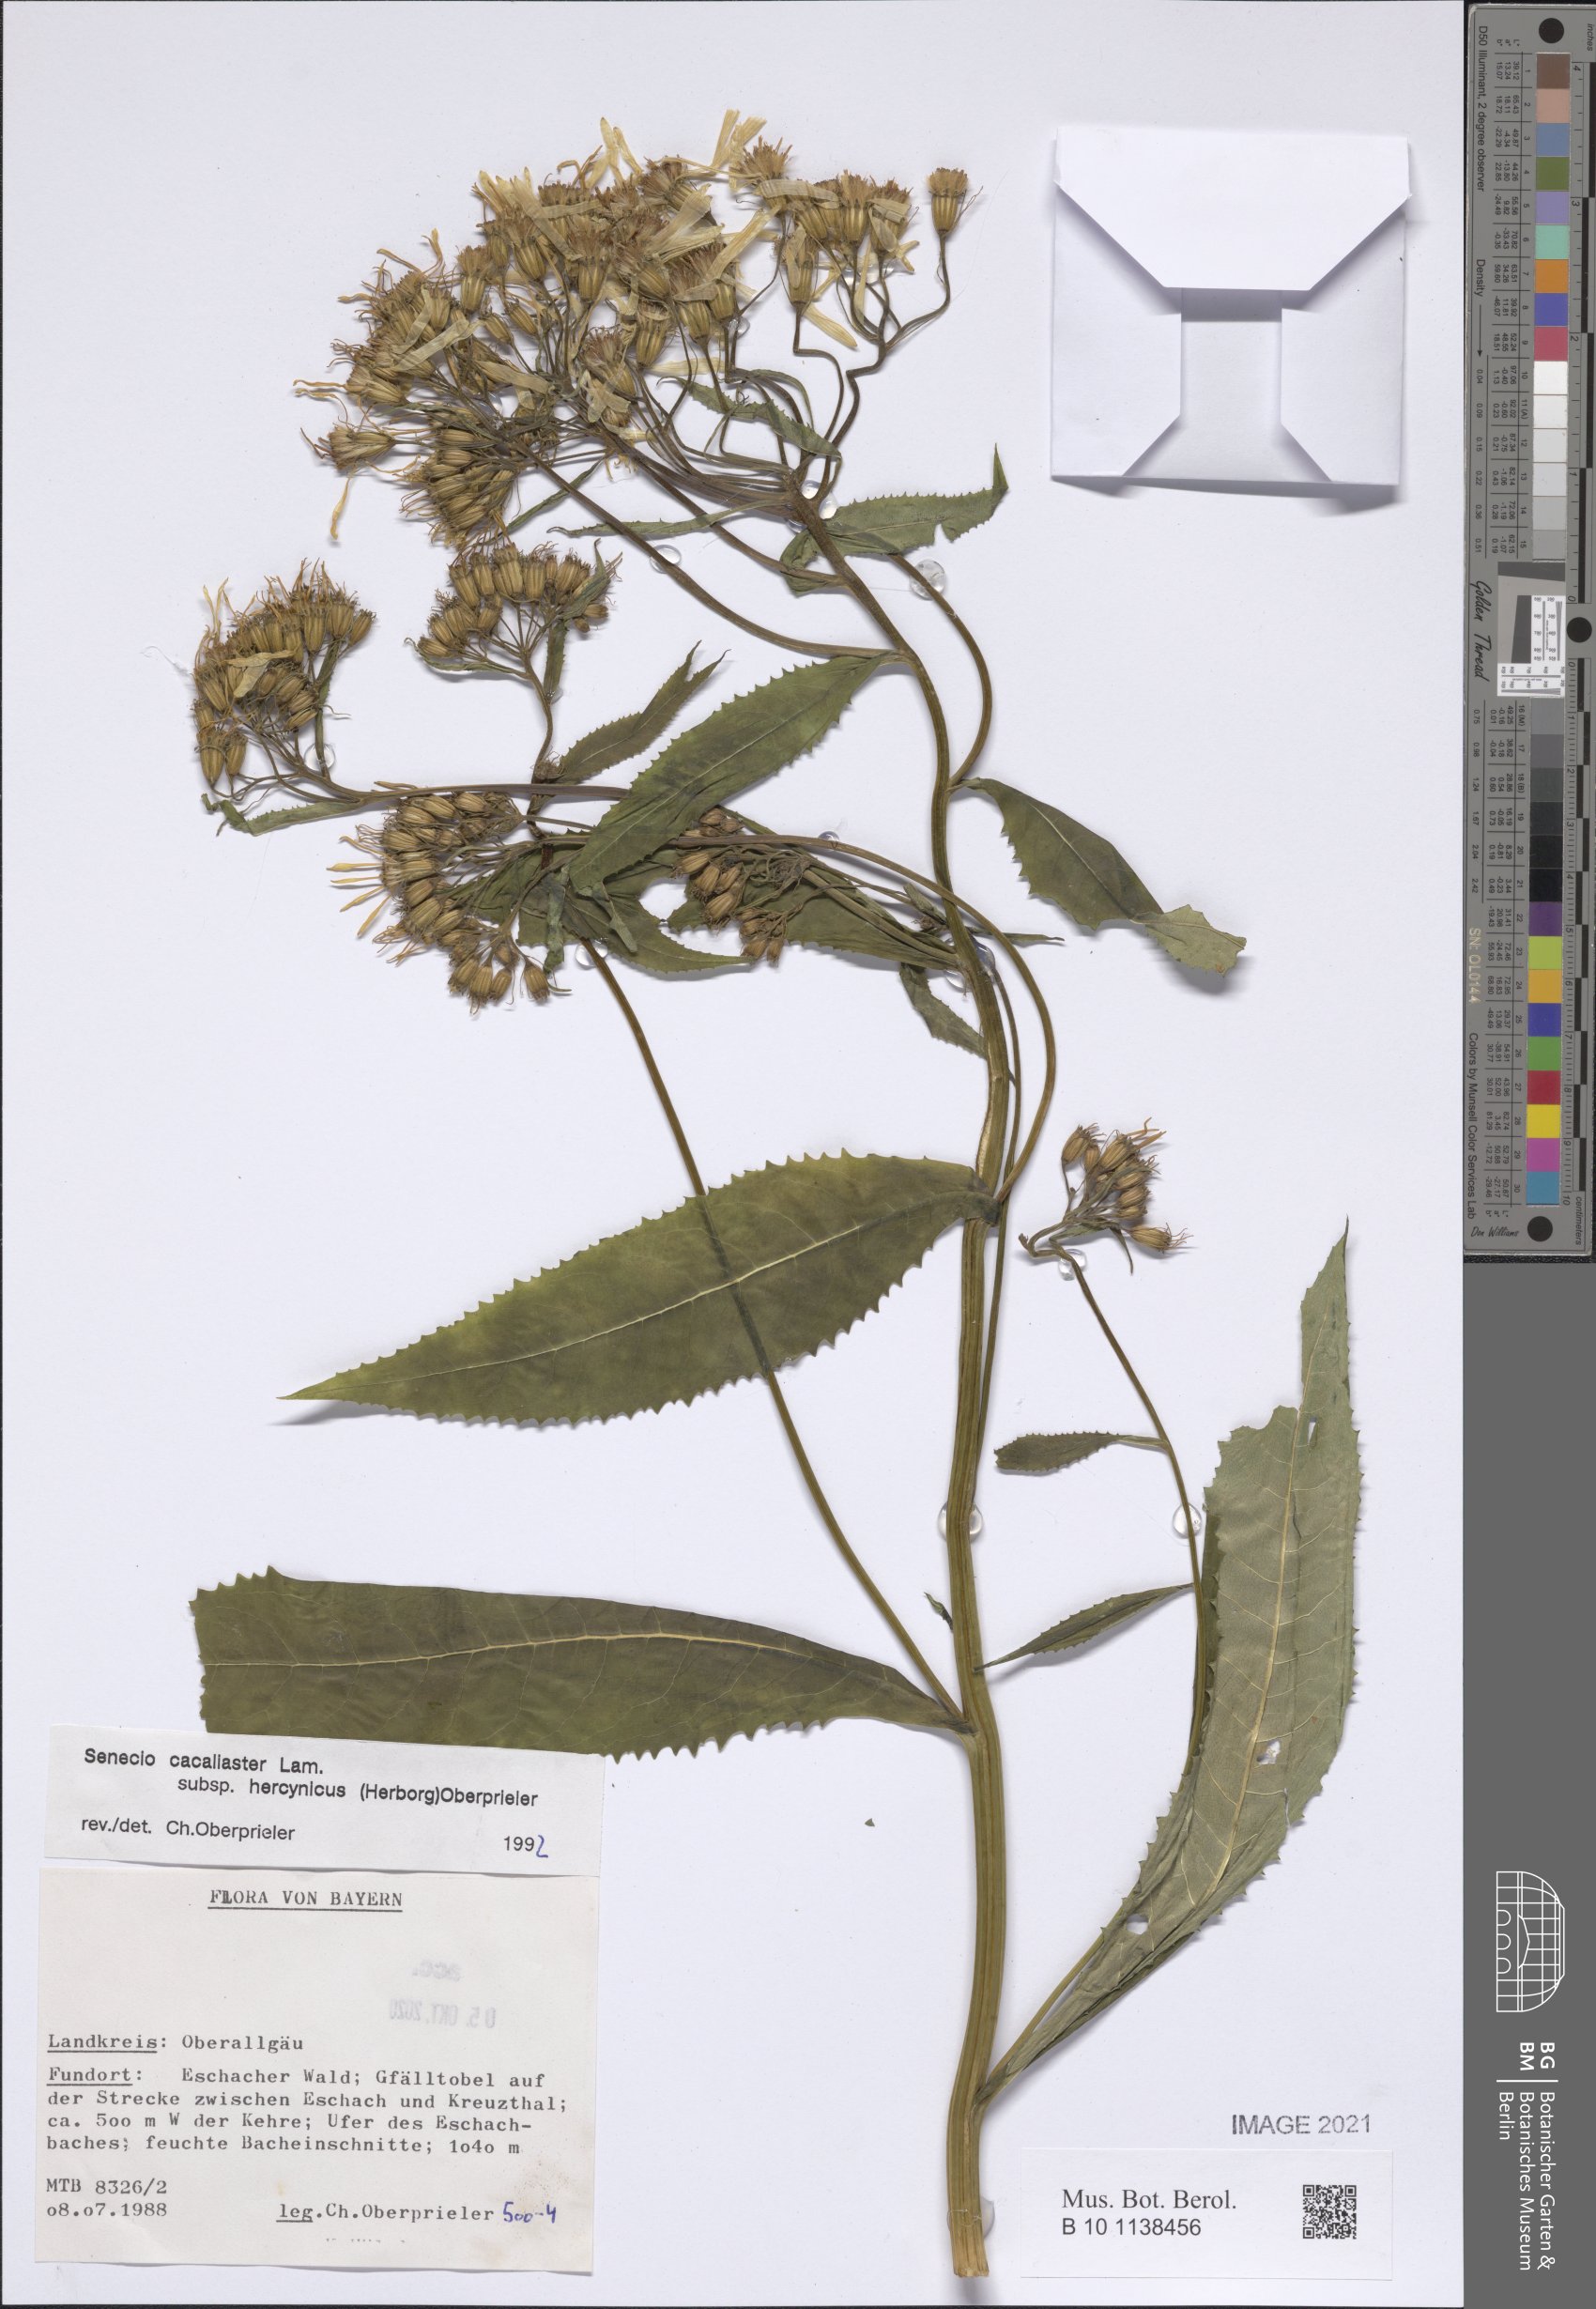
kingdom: Plantae
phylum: Tracheophyta
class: Magnoliopsida
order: Asterales
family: Asteraceae
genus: Senecio
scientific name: Senecio hercynicus
